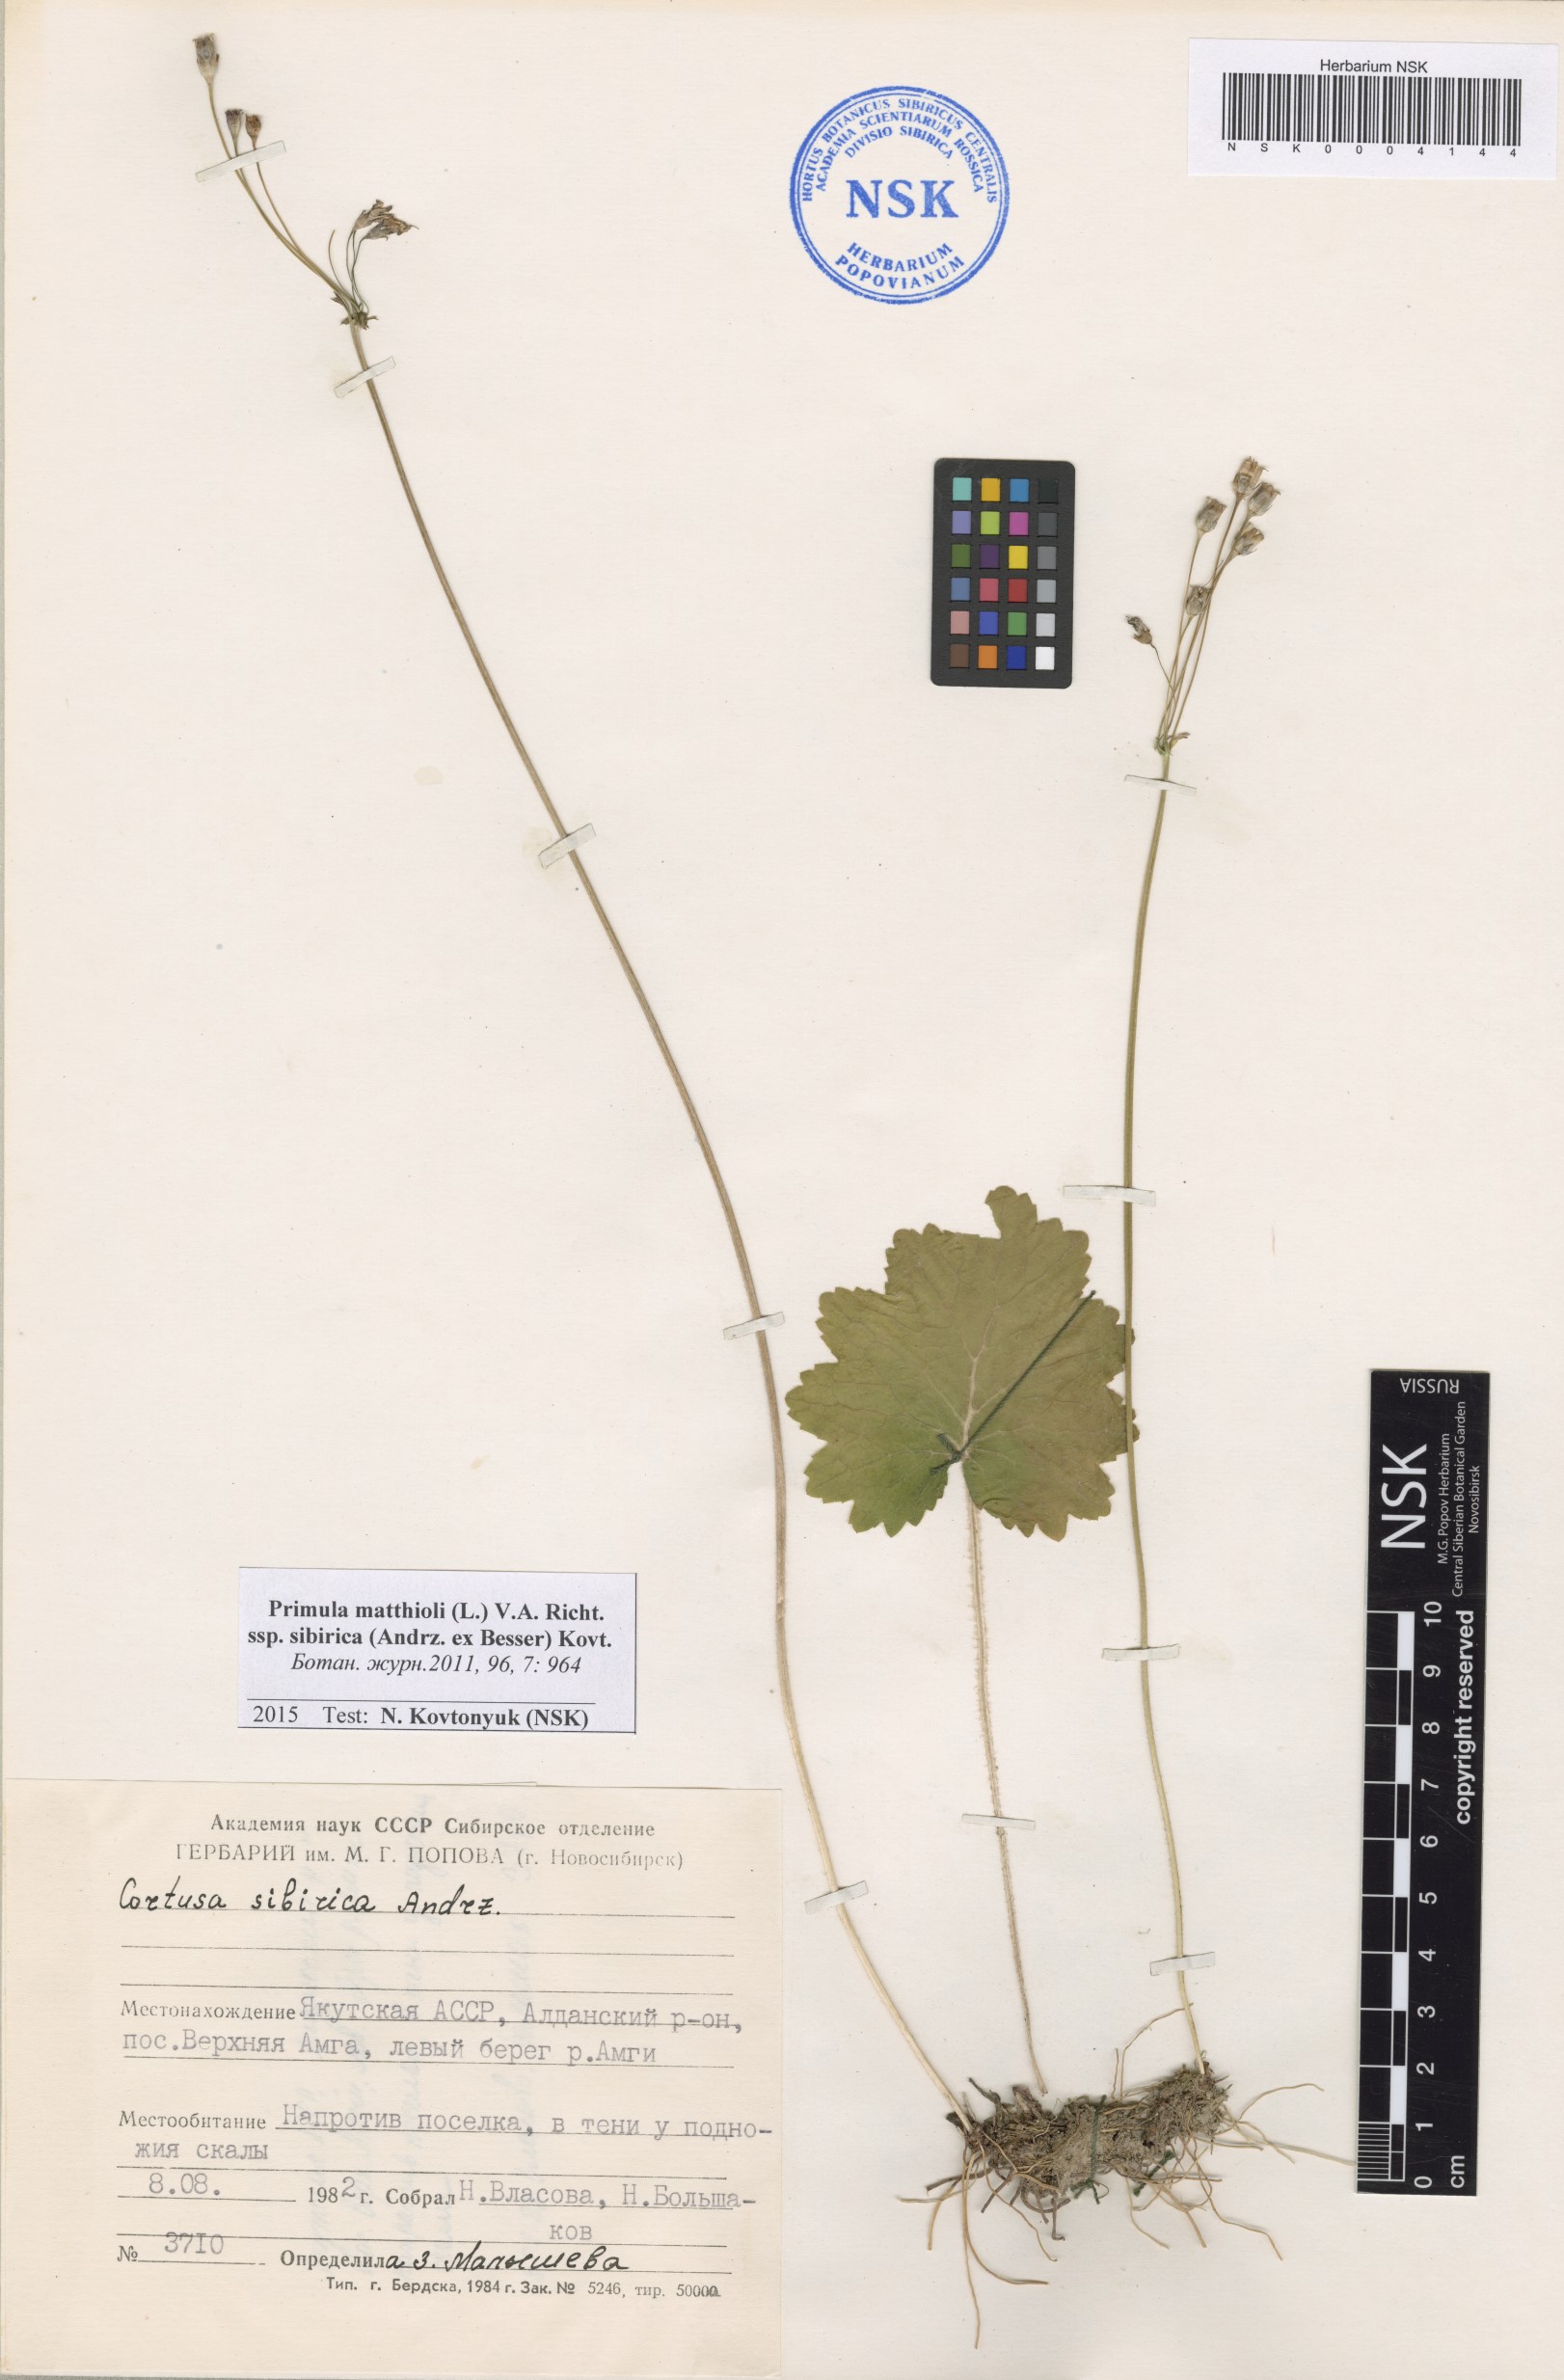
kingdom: Plantae
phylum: Tracheophyta
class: Magnoliopsida
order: Ericales
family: Primulaceae
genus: Primula
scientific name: Primula matthioli
